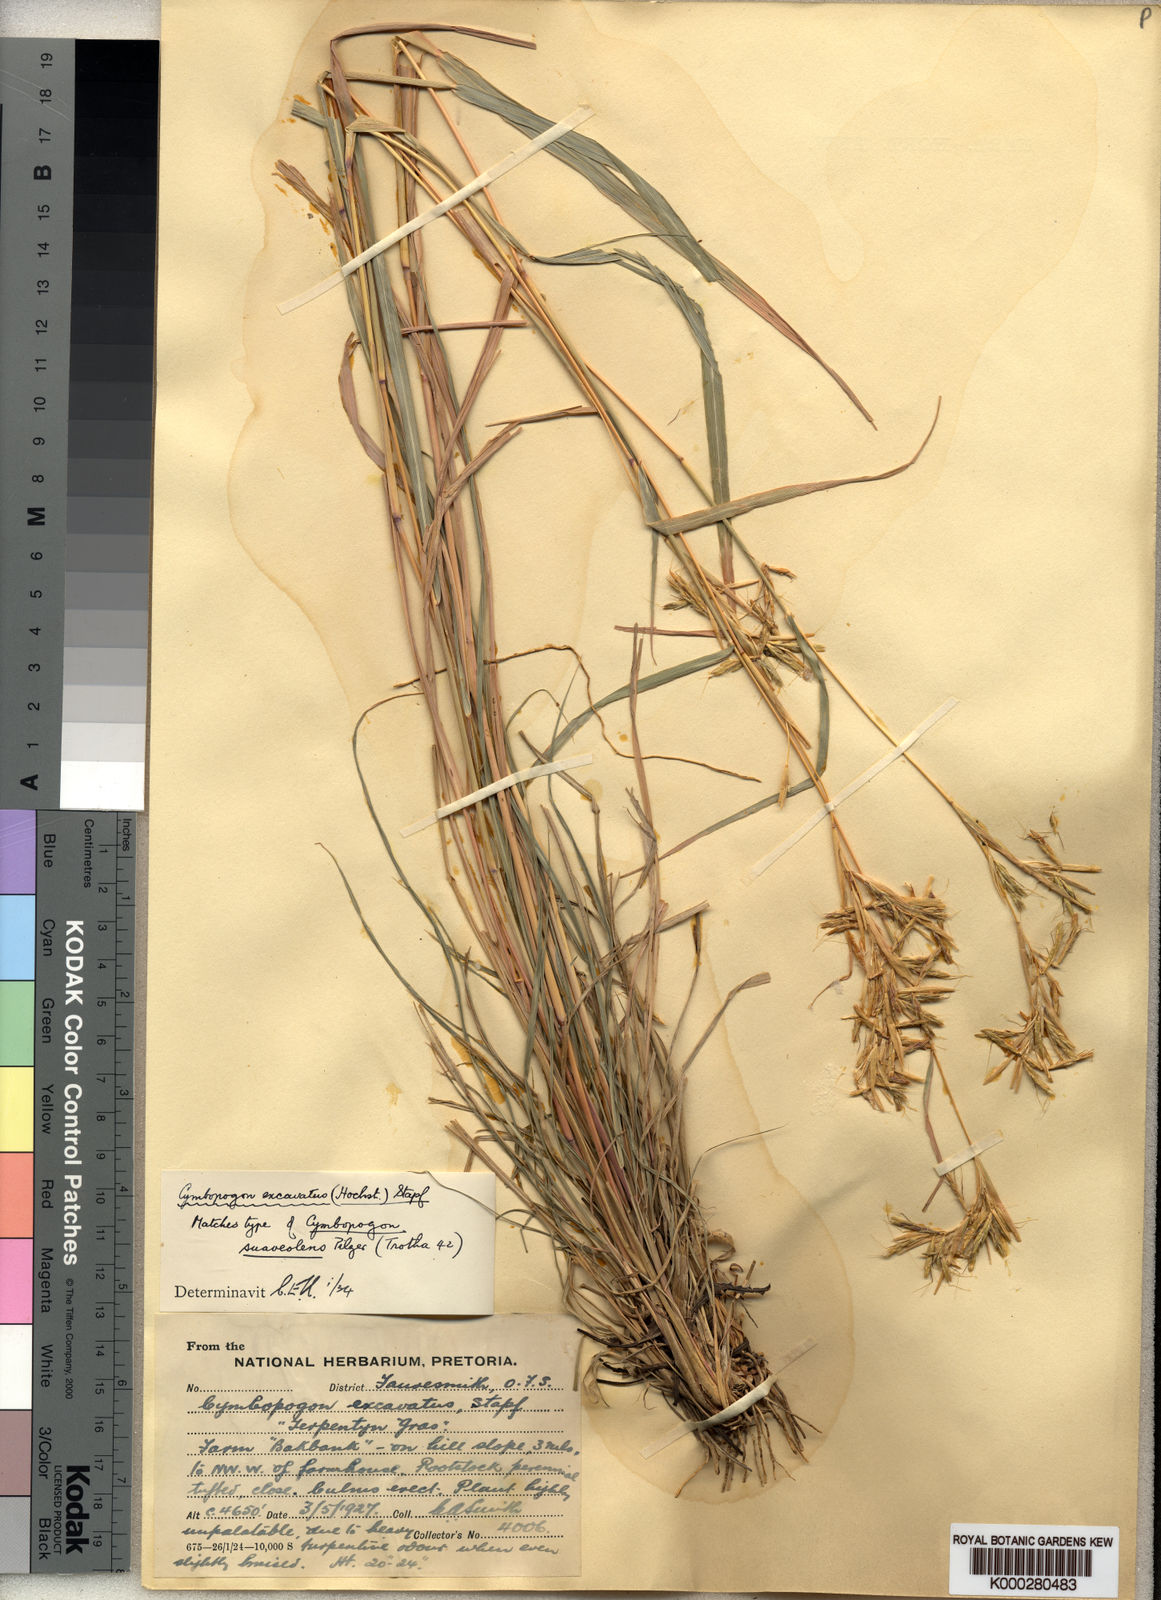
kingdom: Plantae
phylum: Tracheophyta
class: Liliopsida
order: Poales
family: Poaceae
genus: Cymbopogon
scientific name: Cymbopogon caesius
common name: Kachi grass
